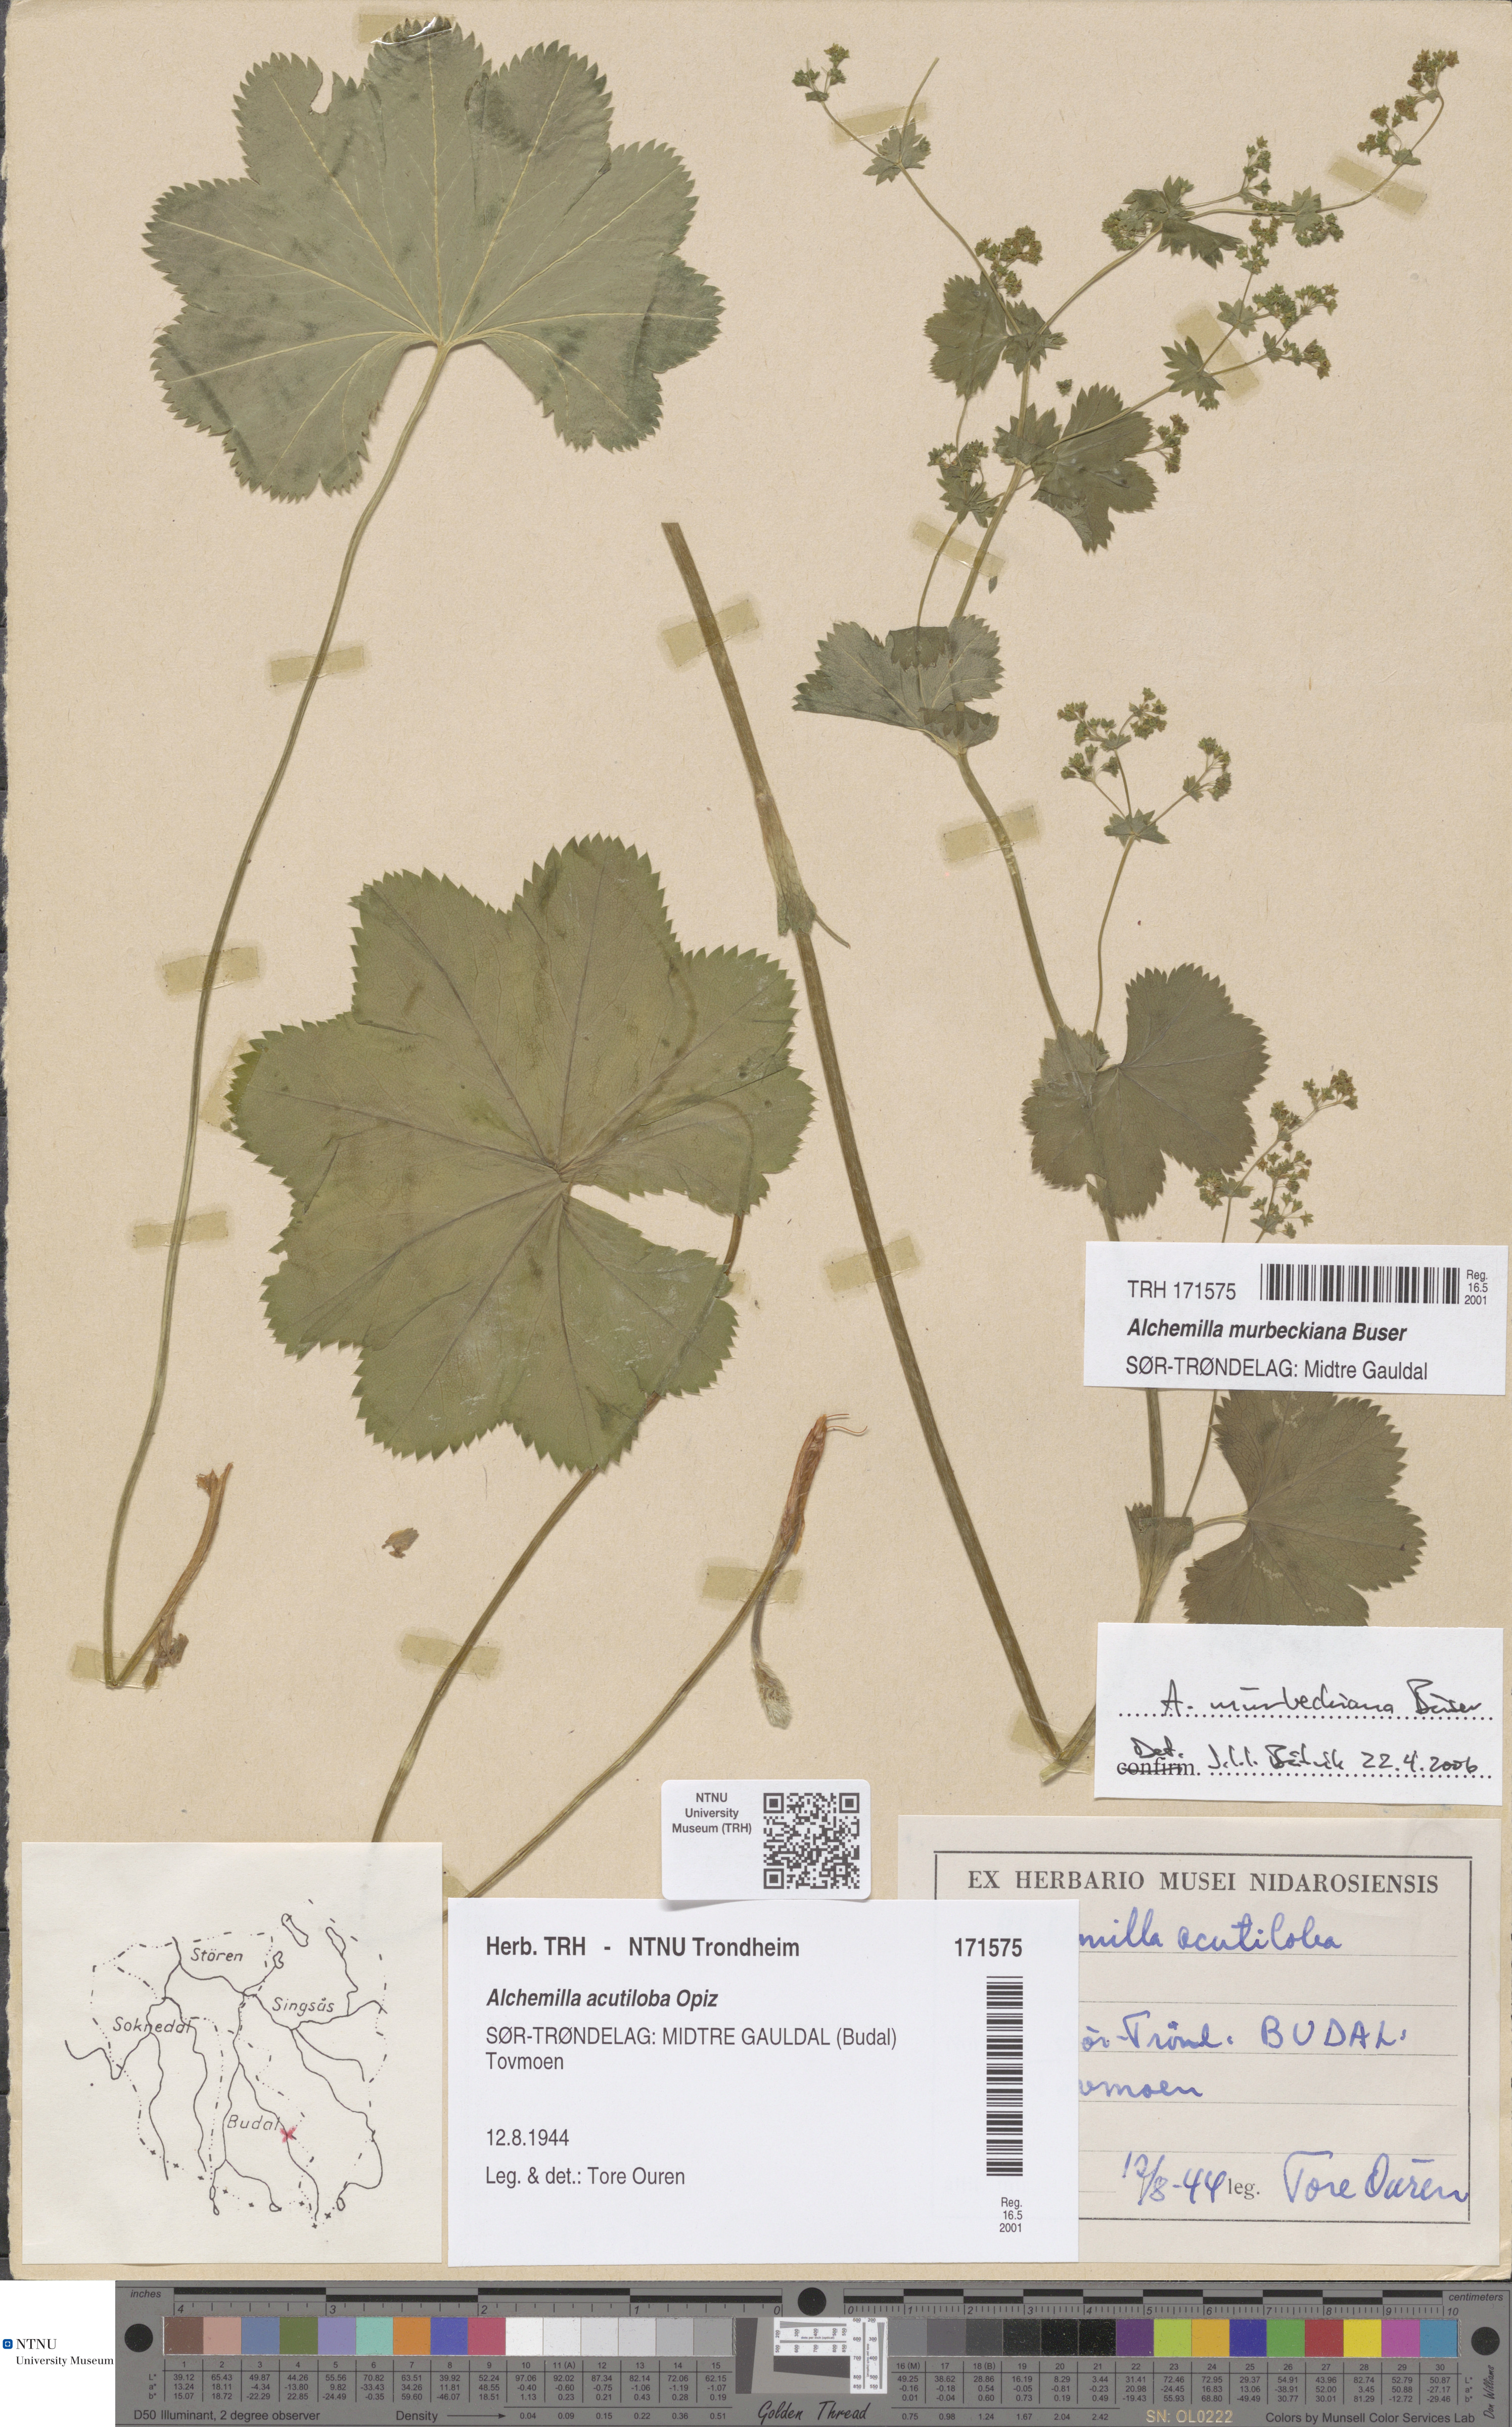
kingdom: Plantae
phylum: Tracheophyta
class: Magnoliopsida
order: Rosales
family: Rosaceae
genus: Alchemilla
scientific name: Alchemilla murbeckiana
